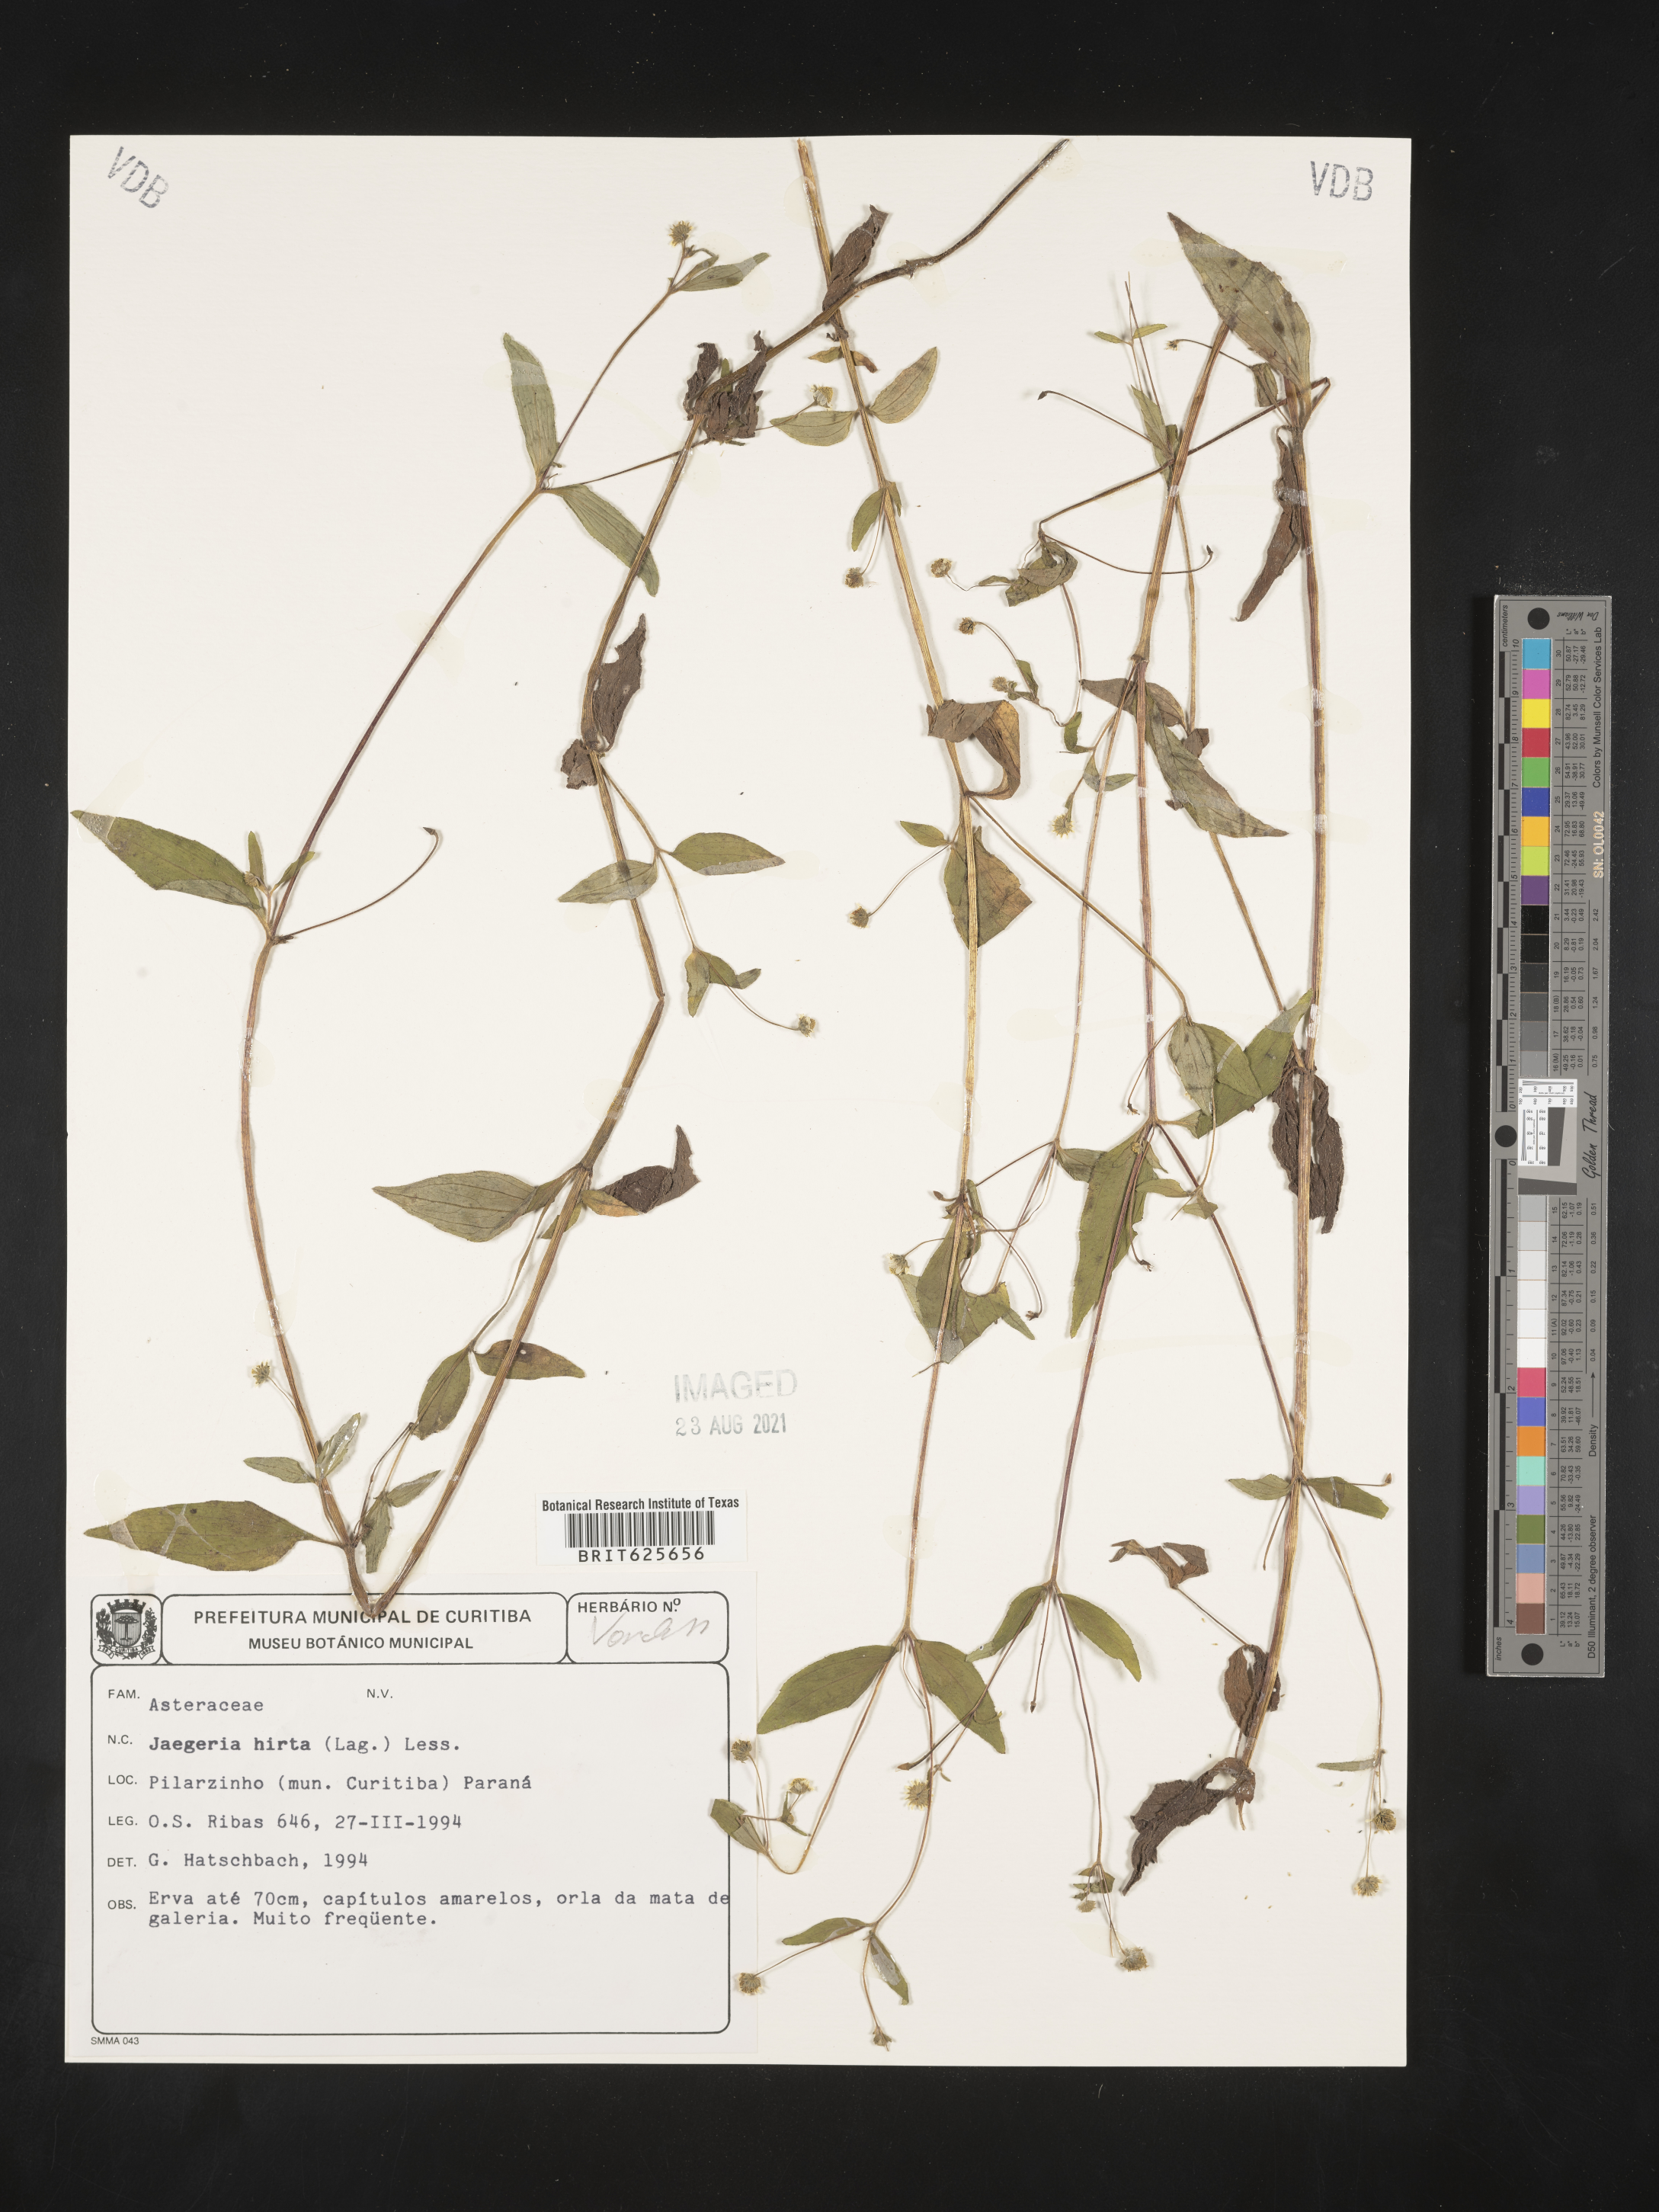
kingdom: Plantae
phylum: Tracheophyta
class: Magnoliopsida
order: Asterales
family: Asteraceae
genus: Jaegeria
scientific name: Jaegeria hirta
